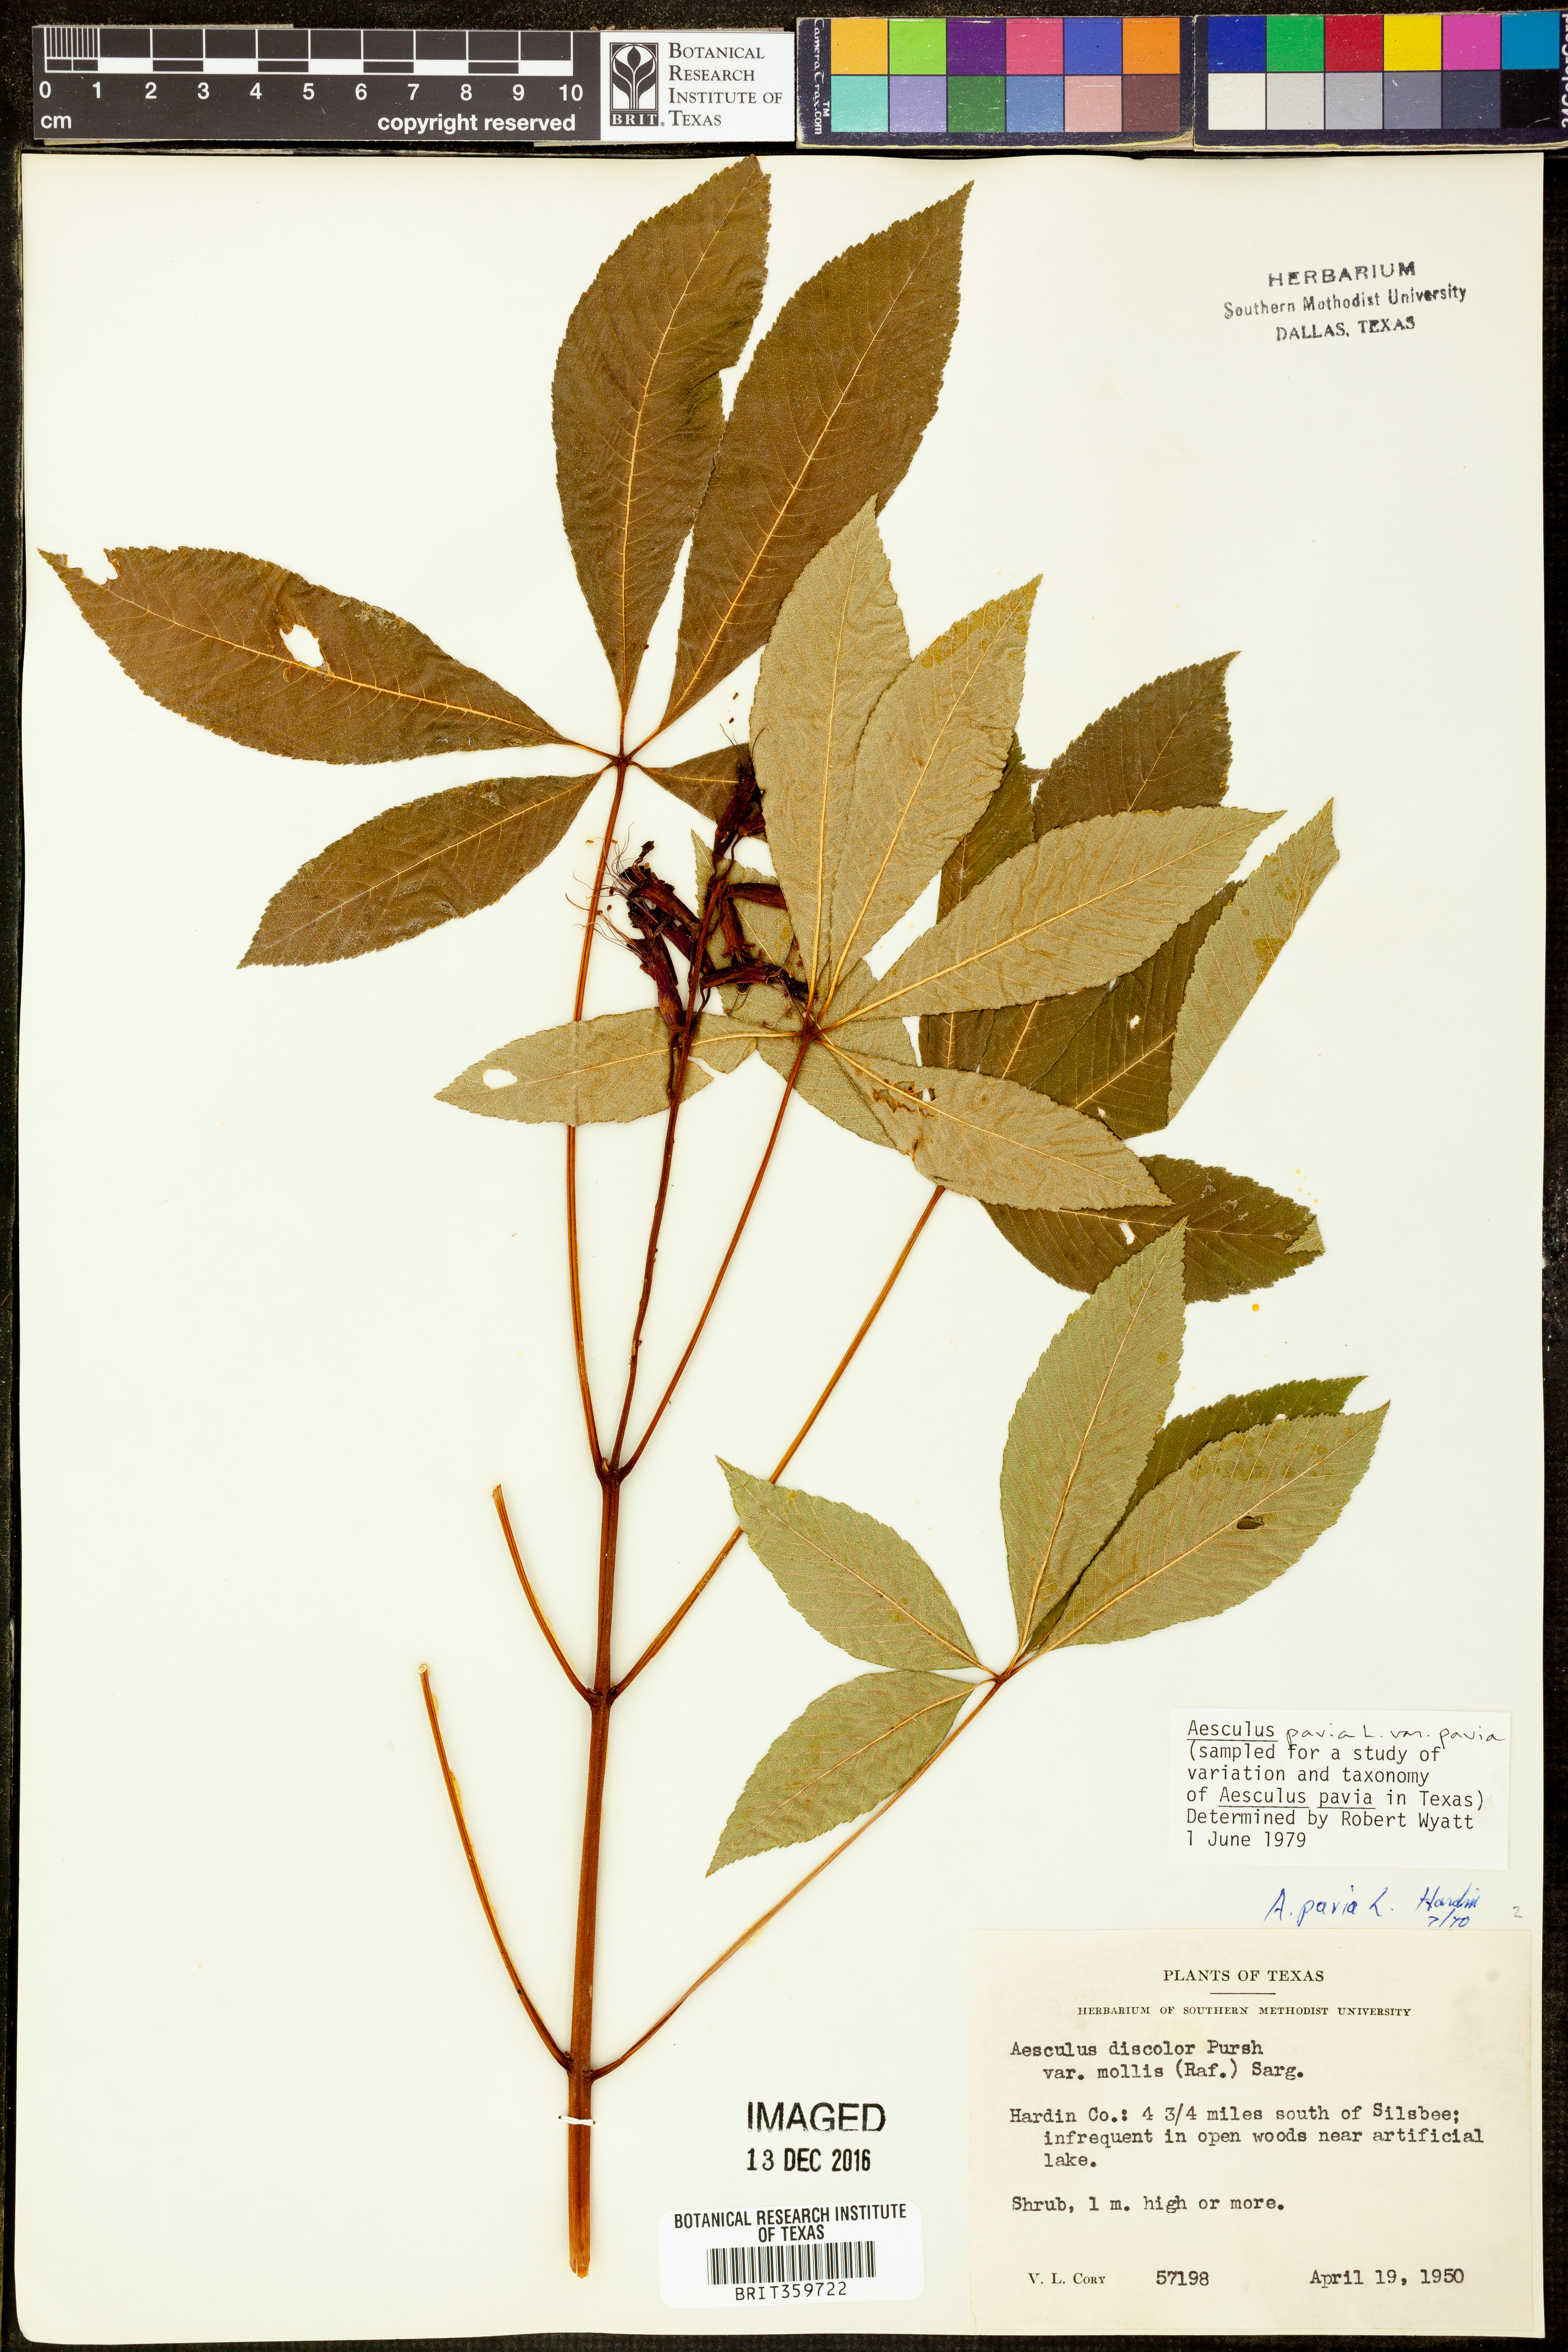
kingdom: Plantae
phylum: Tracheophyta
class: Magnoliopsida
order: Sapindales
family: Sapindaceae
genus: Aesculus
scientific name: Aesculus pavia
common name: Red buckeye
